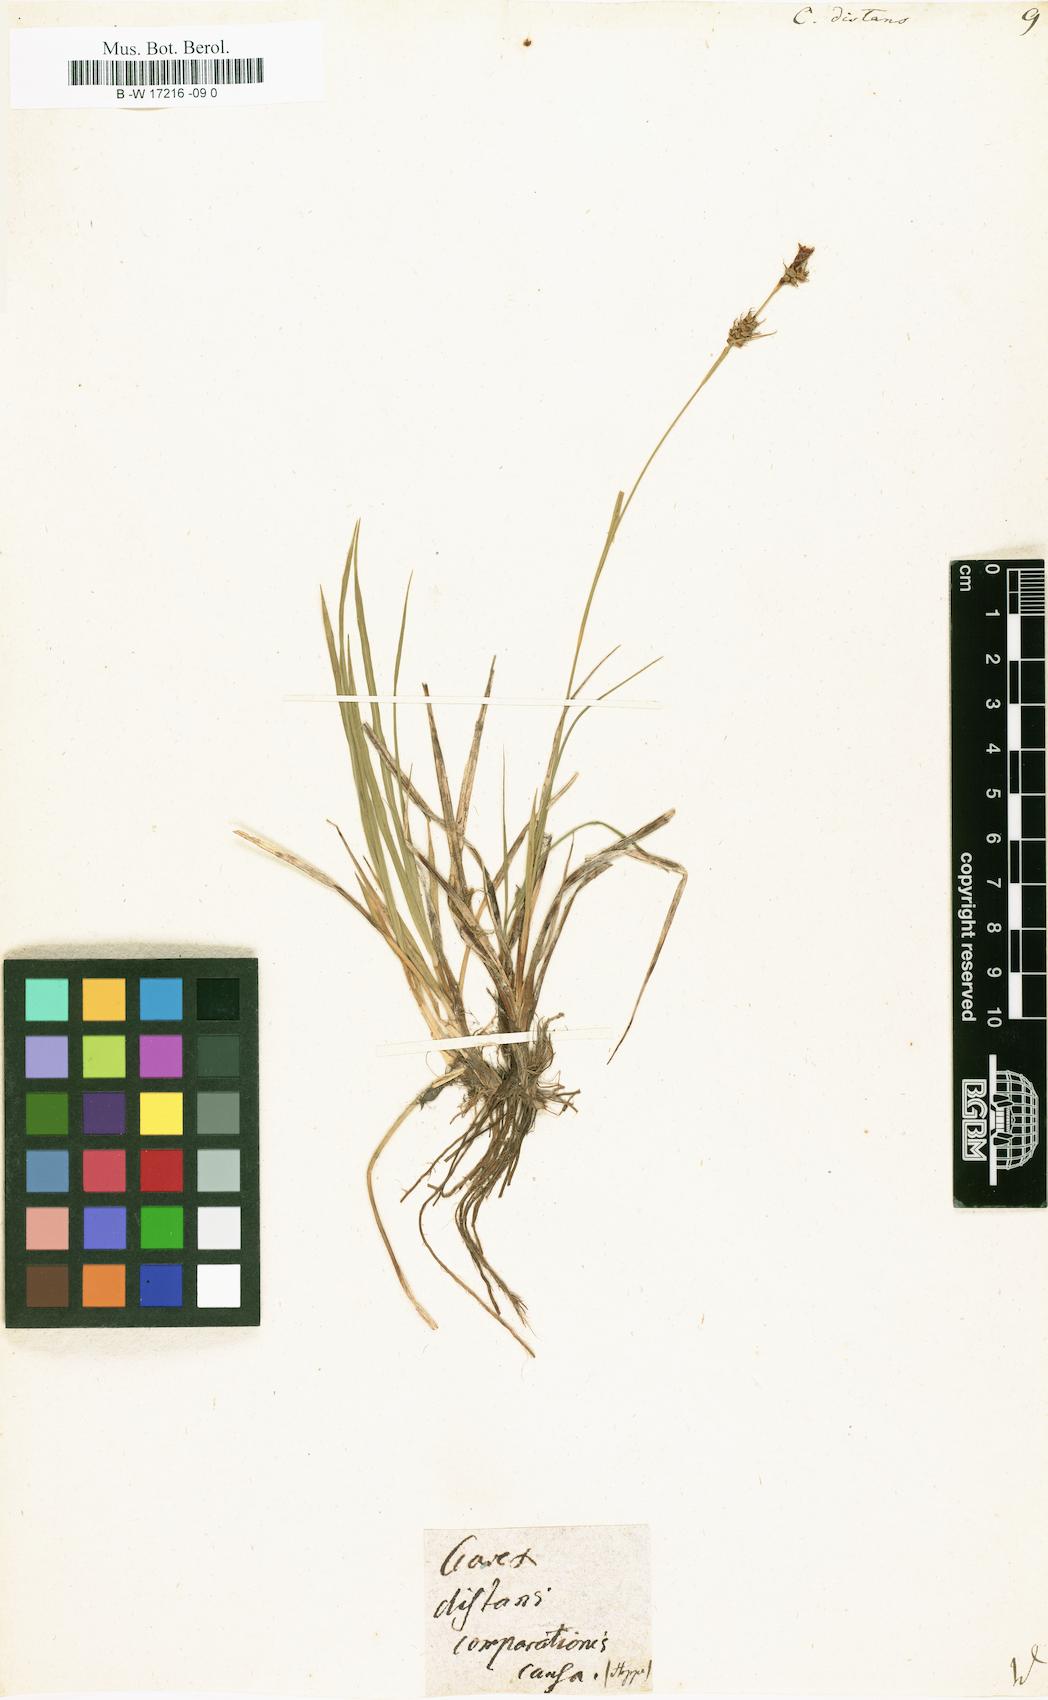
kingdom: Plantae
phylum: Tracheophyta
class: Liliopsida
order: Poales
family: Cyperaceae
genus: Carex
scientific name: Carex distans
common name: Distant sedge
